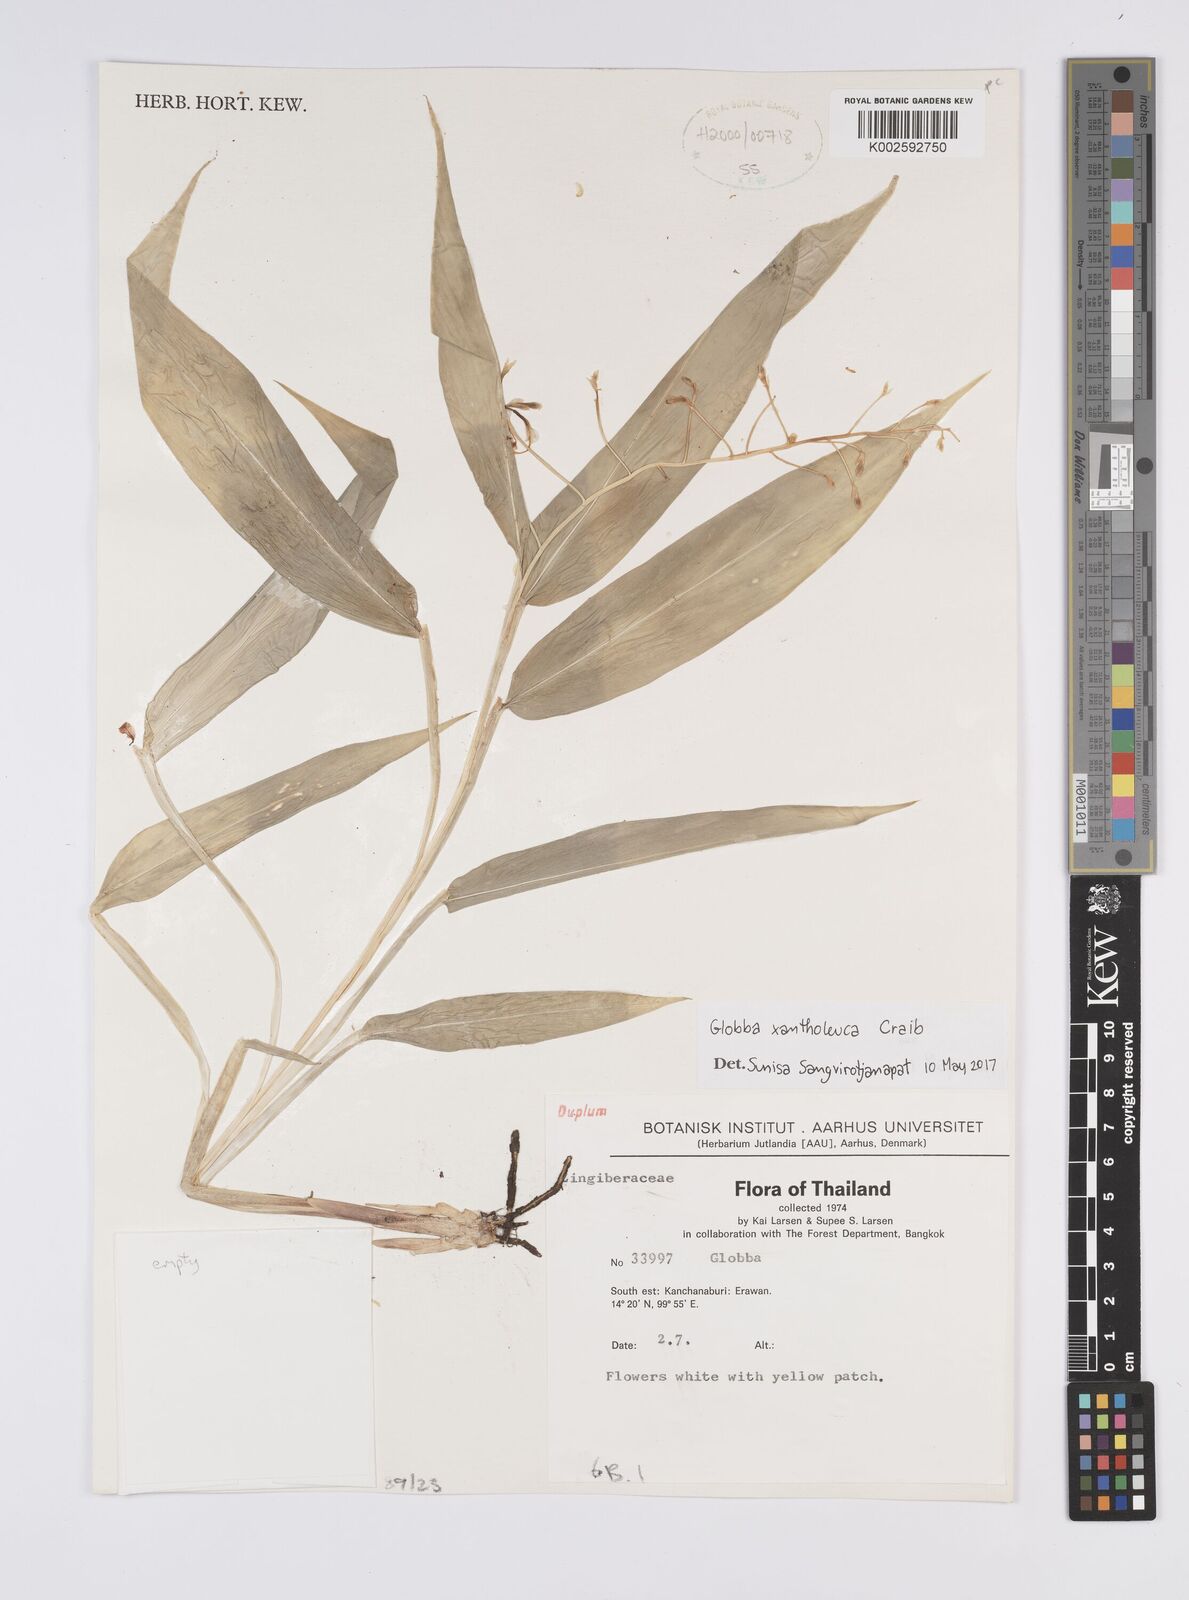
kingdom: Plantae
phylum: Tracheophyta
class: Liliopsida
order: Zingiberales
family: Zingiberaceae
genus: Globba
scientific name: Globba xantholeuca
